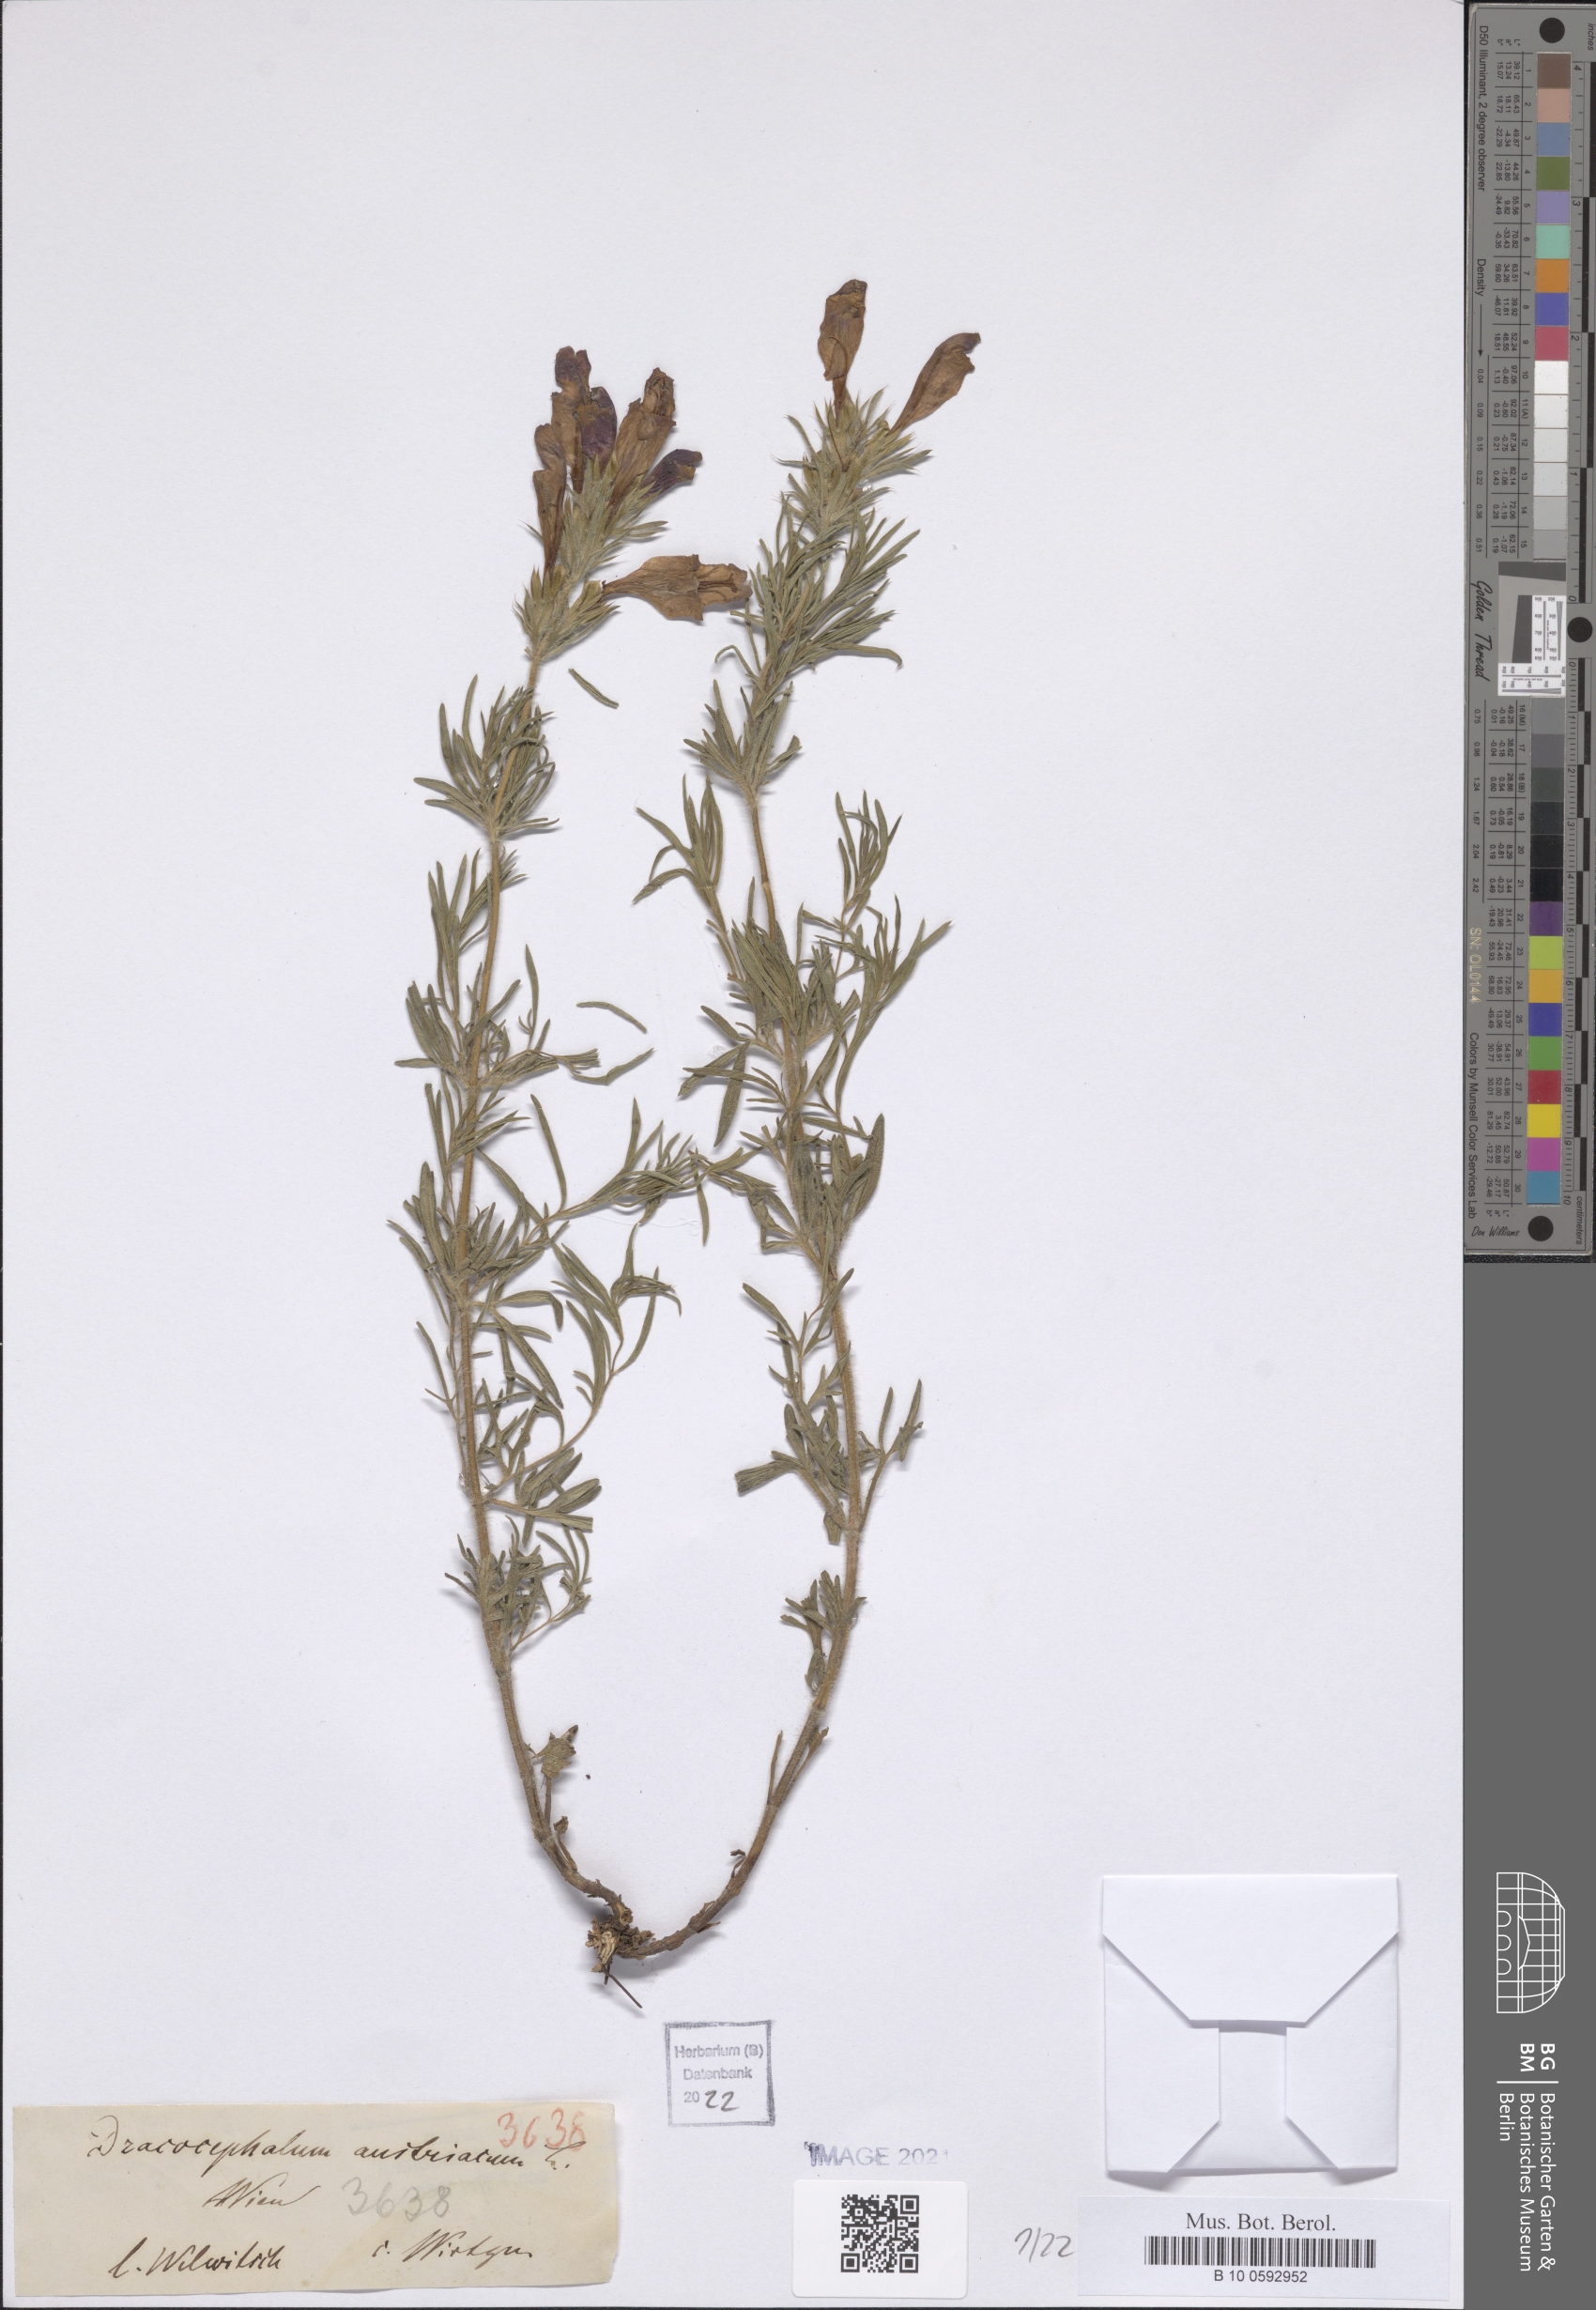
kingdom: Plantae
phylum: Tracheophyta
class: Magnoliopsida
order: Lamiales
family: Lamiaceae
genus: Dracocephalum
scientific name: Dracocephalum austriacum
